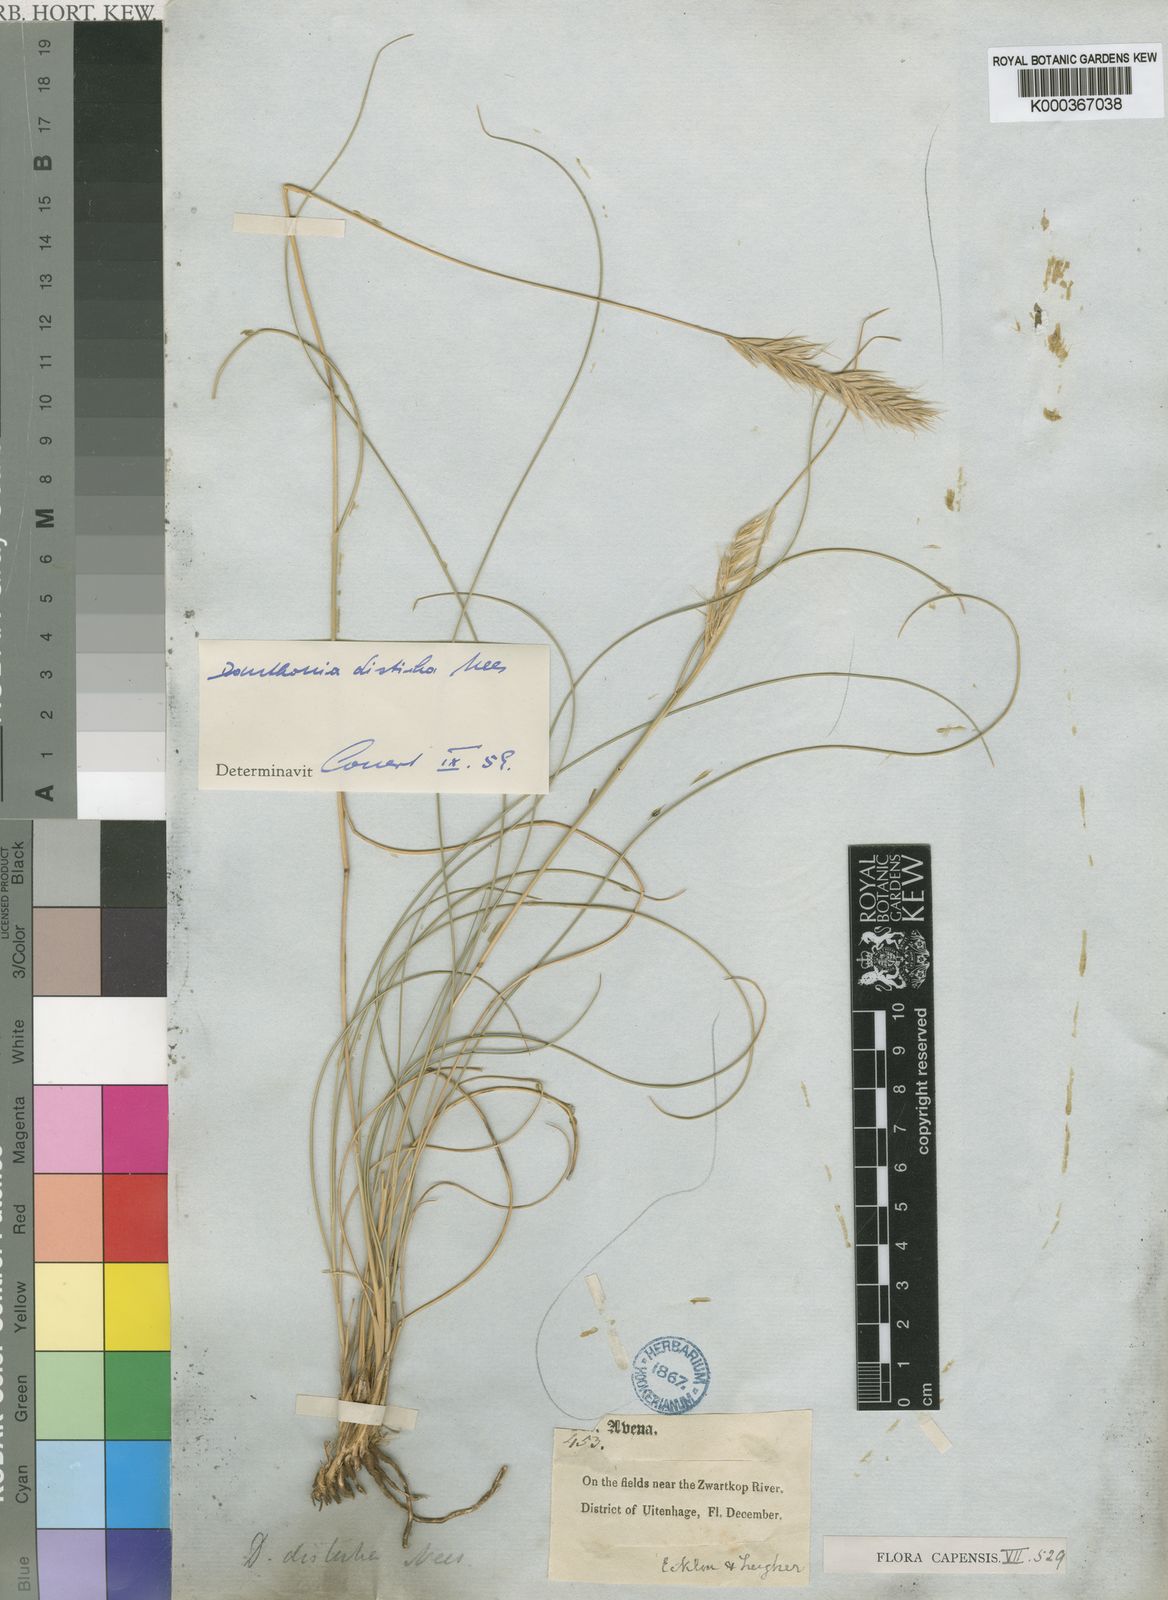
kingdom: Plantae
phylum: Tracheophyta
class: Liliopsida
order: Poales
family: Poaceae
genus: Tenaxia
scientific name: Tenaxia disticha
